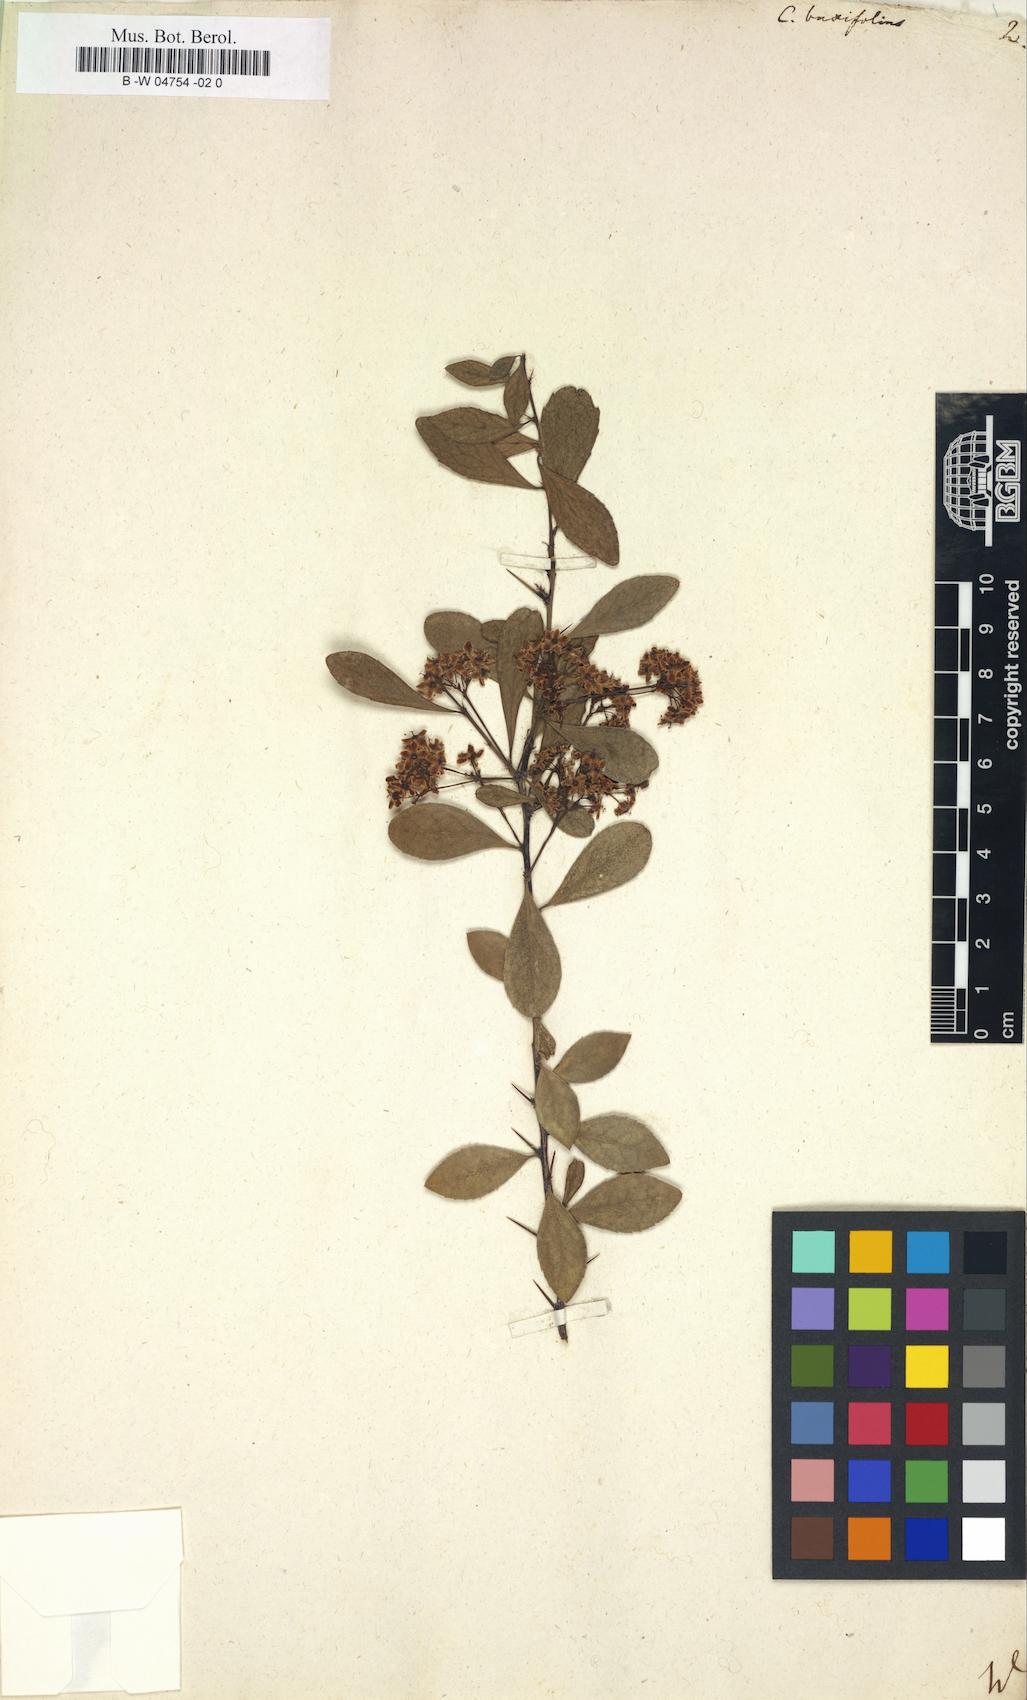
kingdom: Plantae
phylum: Tracheophyta
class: Magnoliopsida
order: Celastrales
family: Celastraceae
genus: Gymnosporia
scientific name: Gymnosporia
